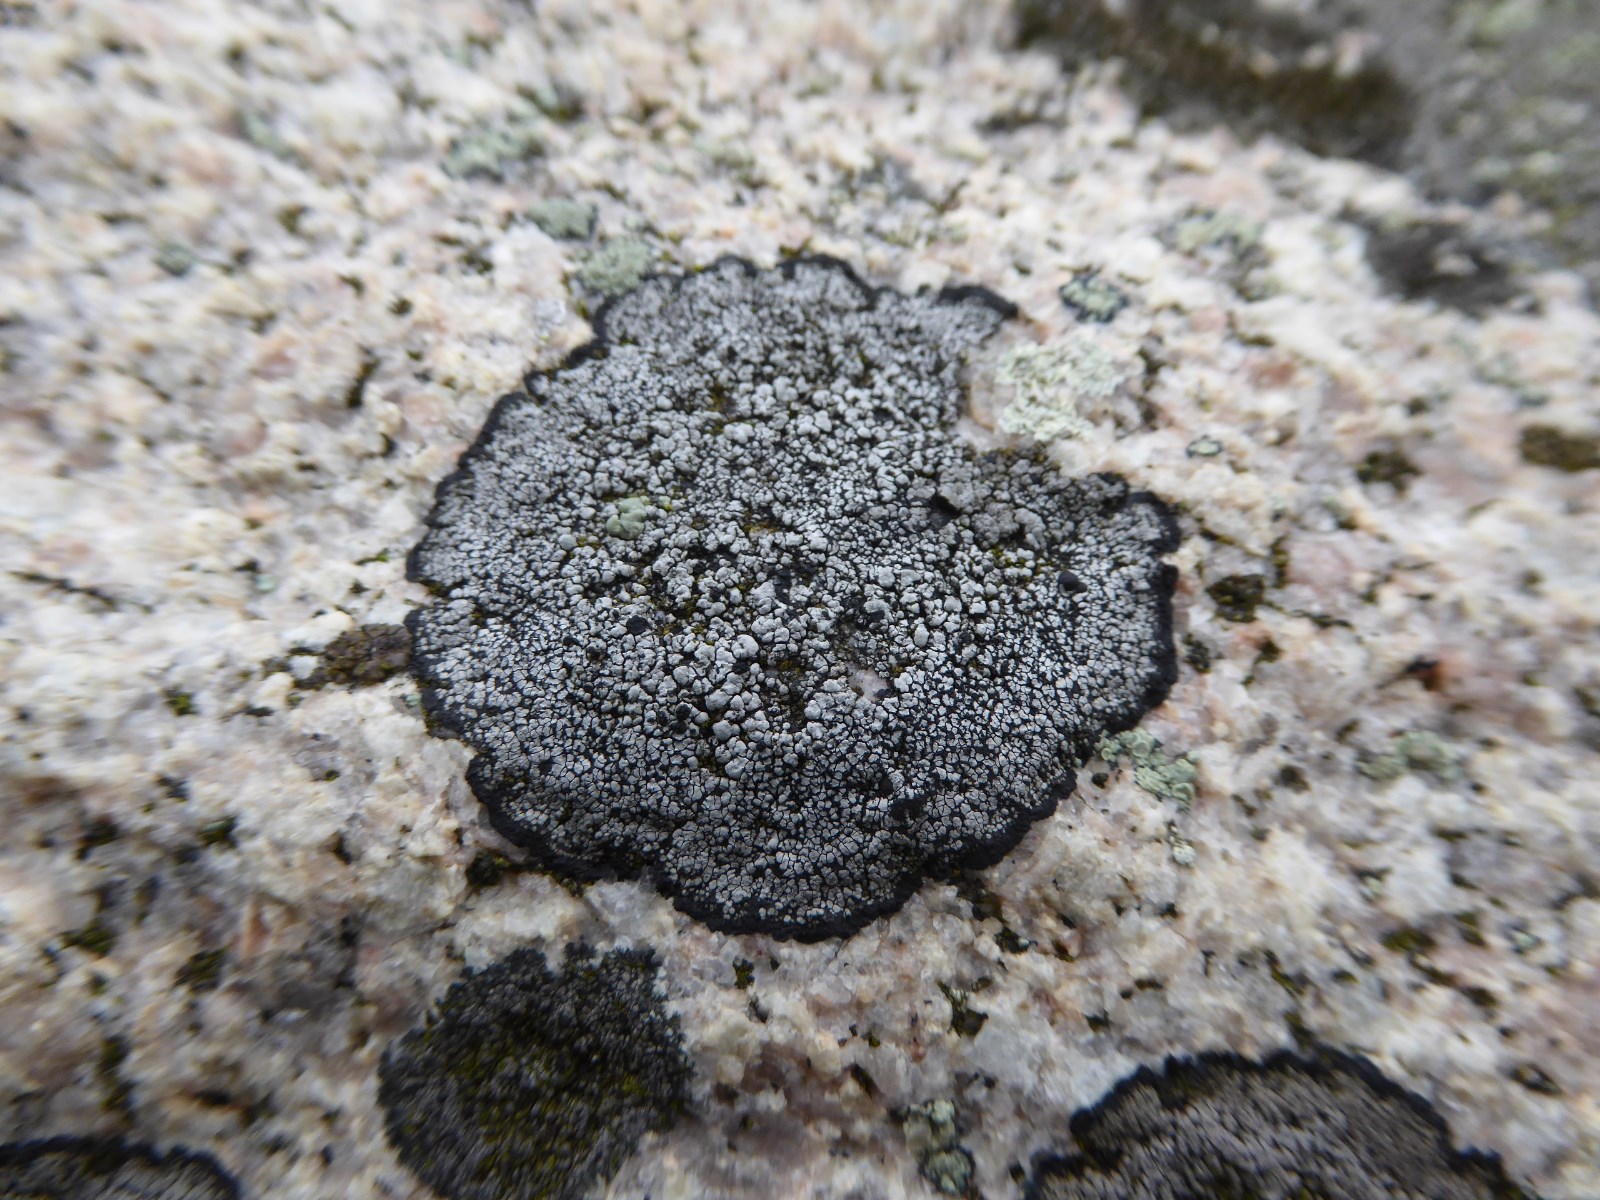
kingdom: Fungi
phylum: Ascomycota
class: Lecanoromycetes
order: Caliciales
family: Caliciaceae
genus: Buellia
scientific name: Buellia aethalea
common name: klippe-sortskivelav
